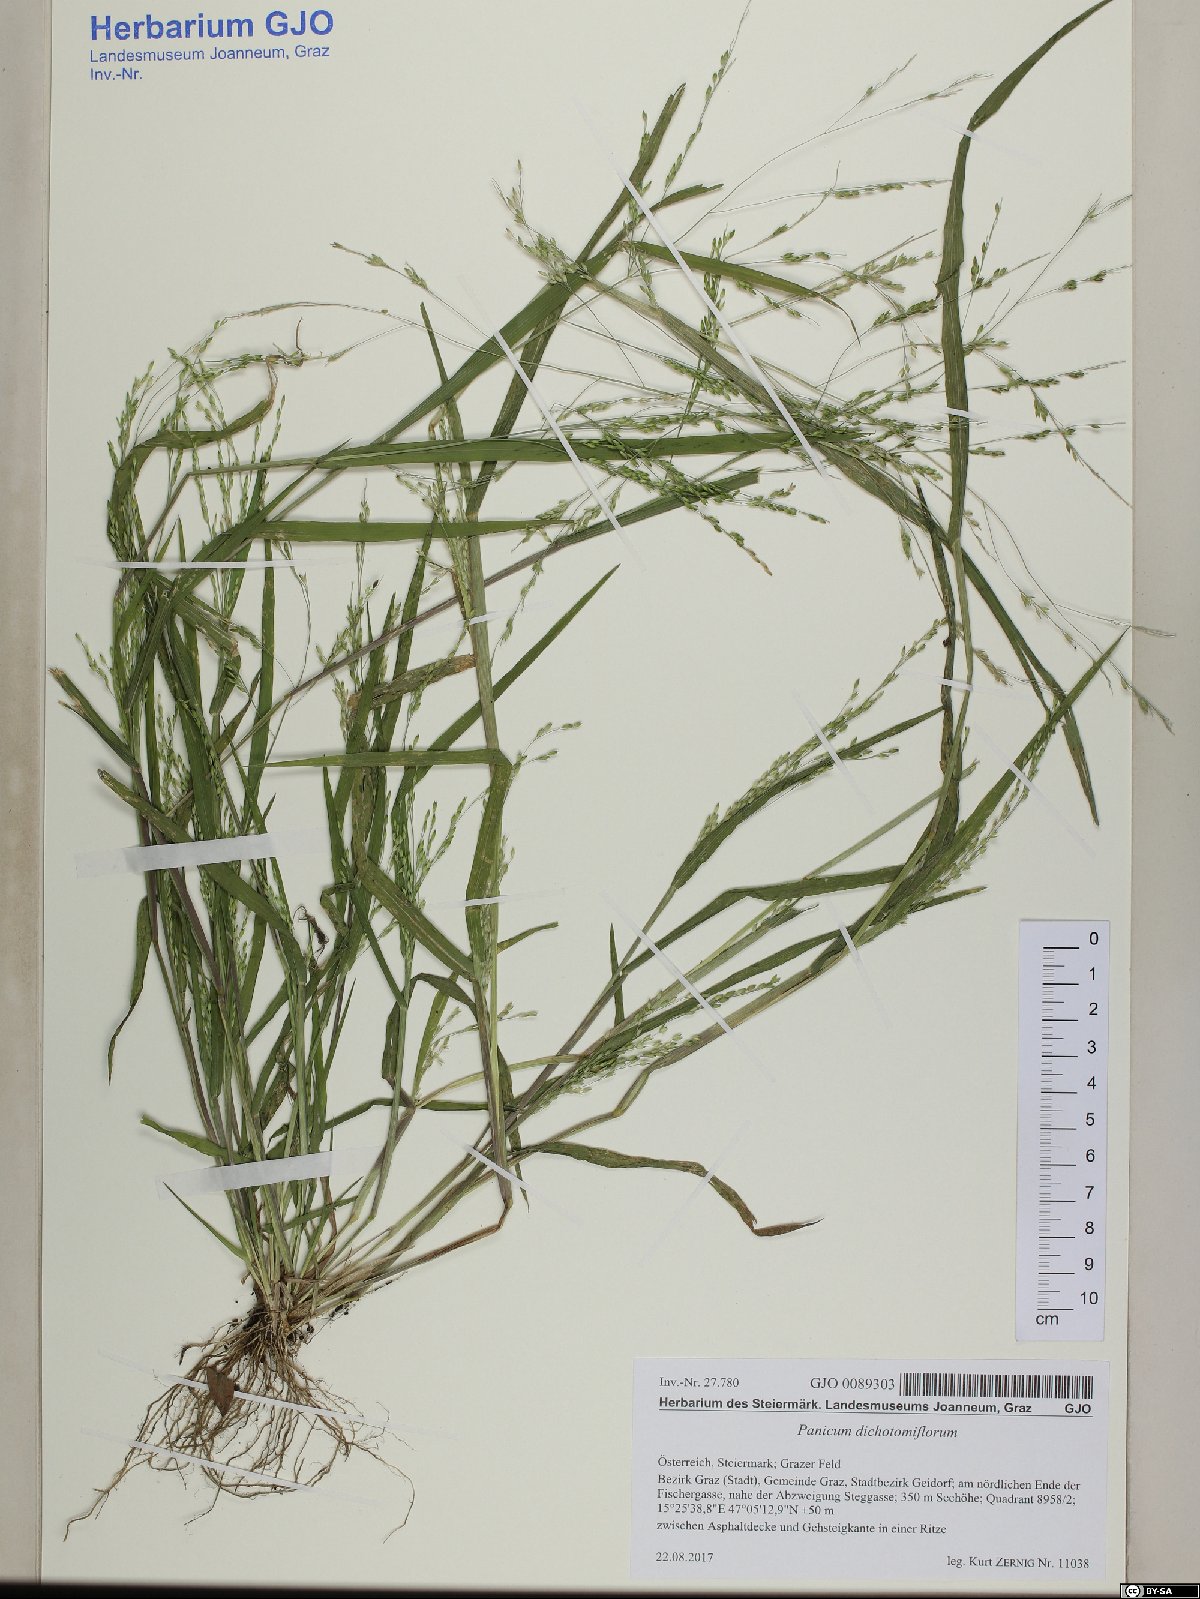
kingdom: Plantae
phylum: Tracheophyta
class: Liliopsida
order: Poales
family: Poaceae
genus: Panicum
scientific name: Panicum dichotomiflorum
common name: Autumn millet
